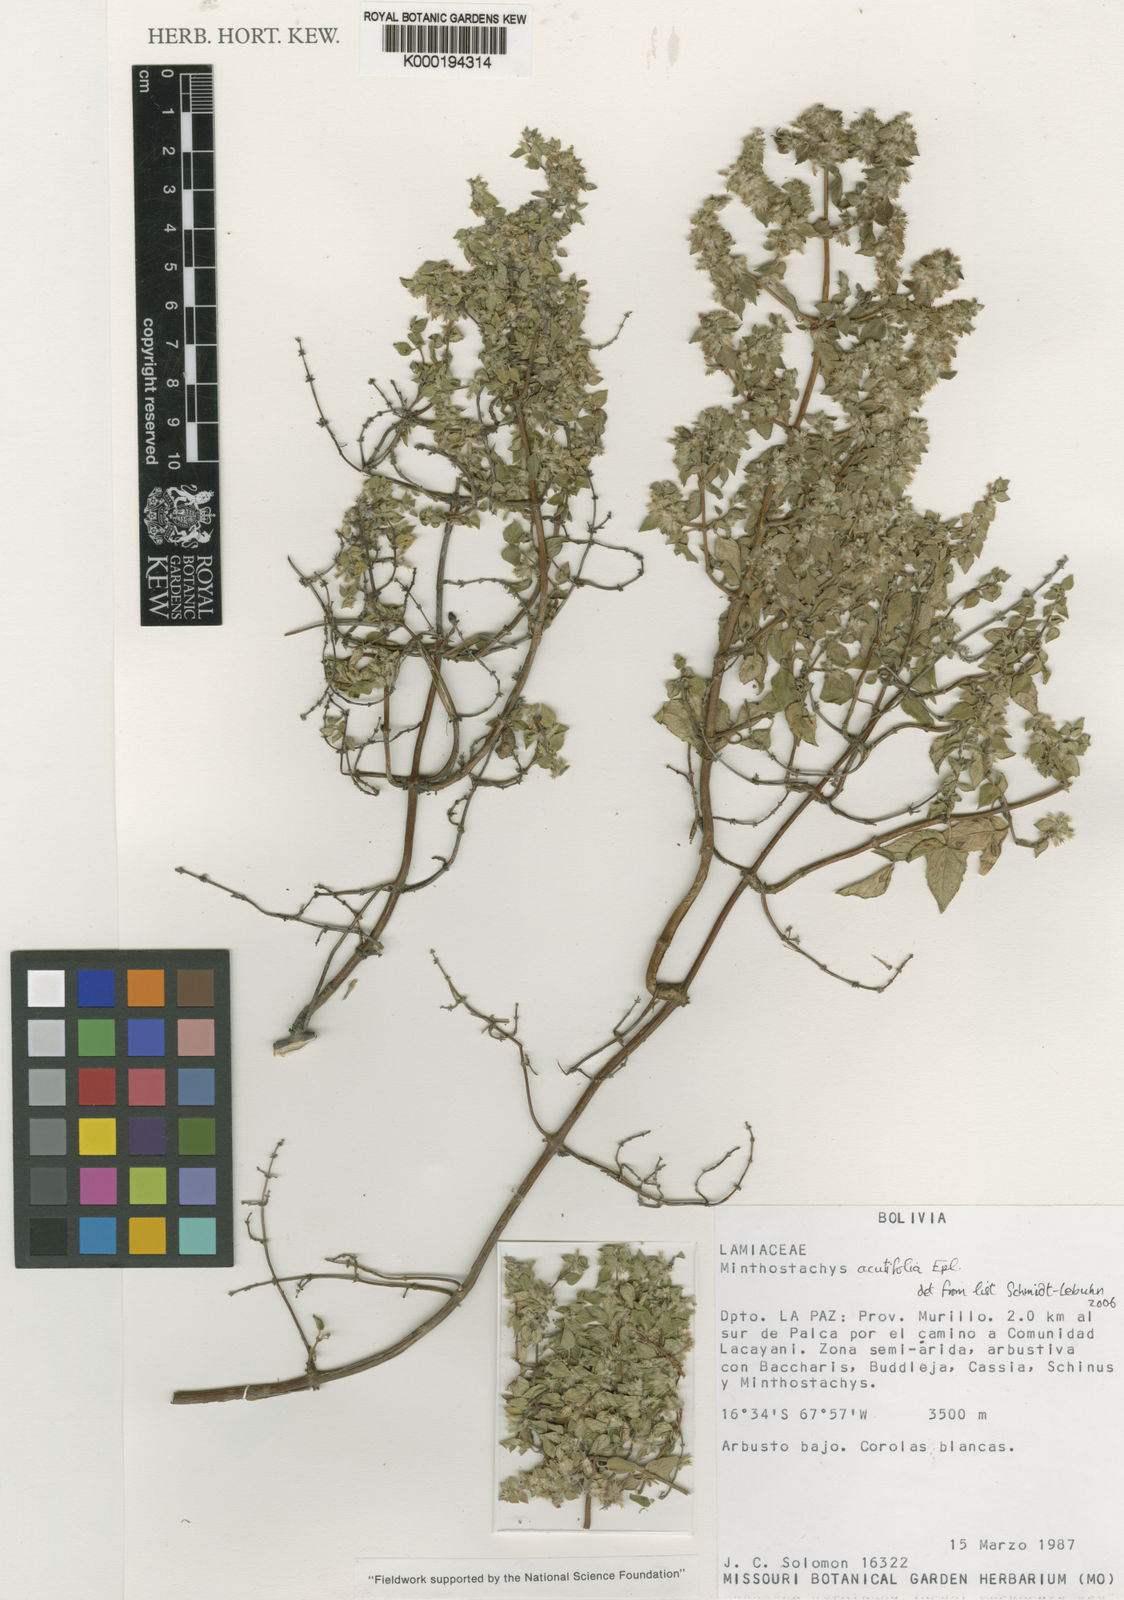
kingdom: Plantae
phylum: Tracheophyta
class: Magnoliopsida
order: Lamiales
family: Lamiaceae
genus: Minthostachys
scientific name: Minthostachys acutifolia
